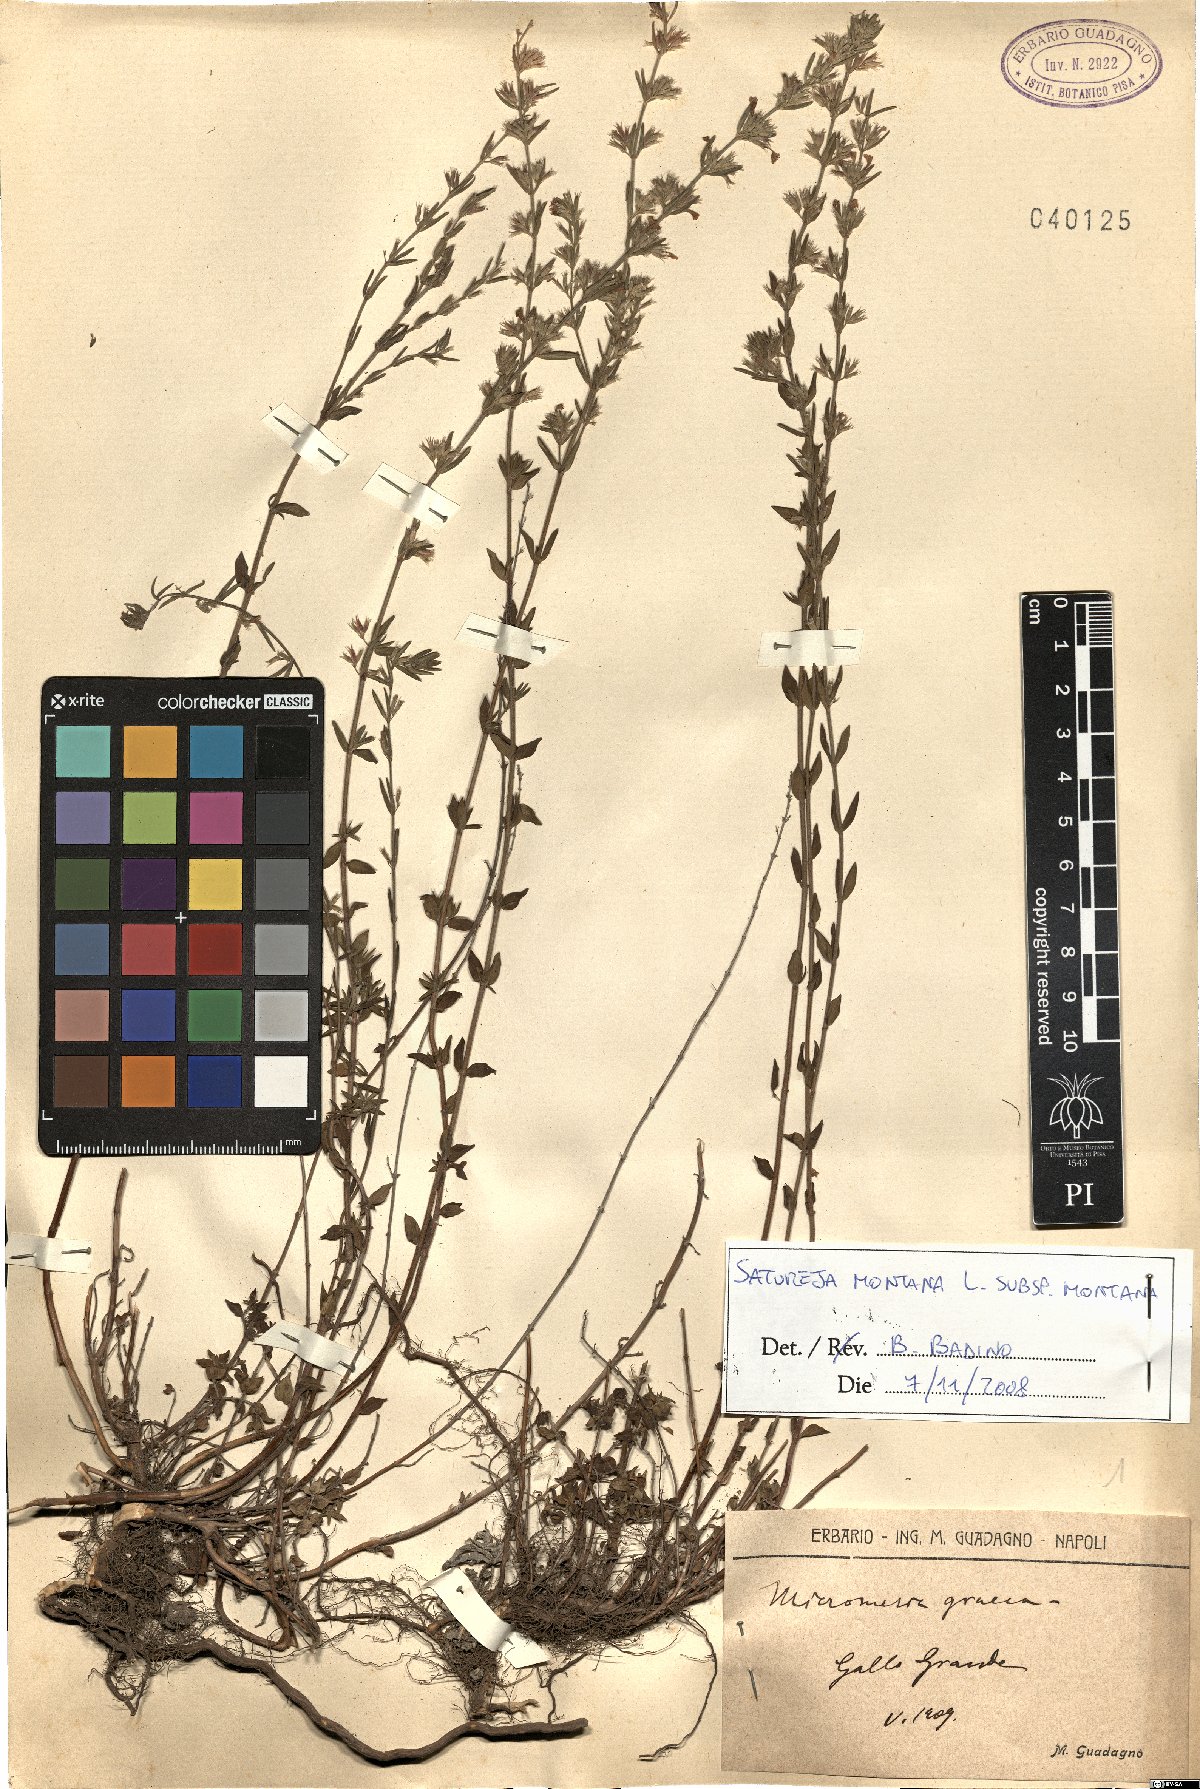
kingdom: Plantae
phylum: Tracheophyta
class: Magnoliopsida
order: Lamiales
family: Lamiaceae
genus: Satureja
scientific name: Satureja montana
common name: Winter savory
